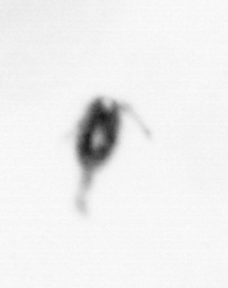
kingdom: Animalia
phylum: Arthropoda
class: Copepoda
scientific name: Copepoda
